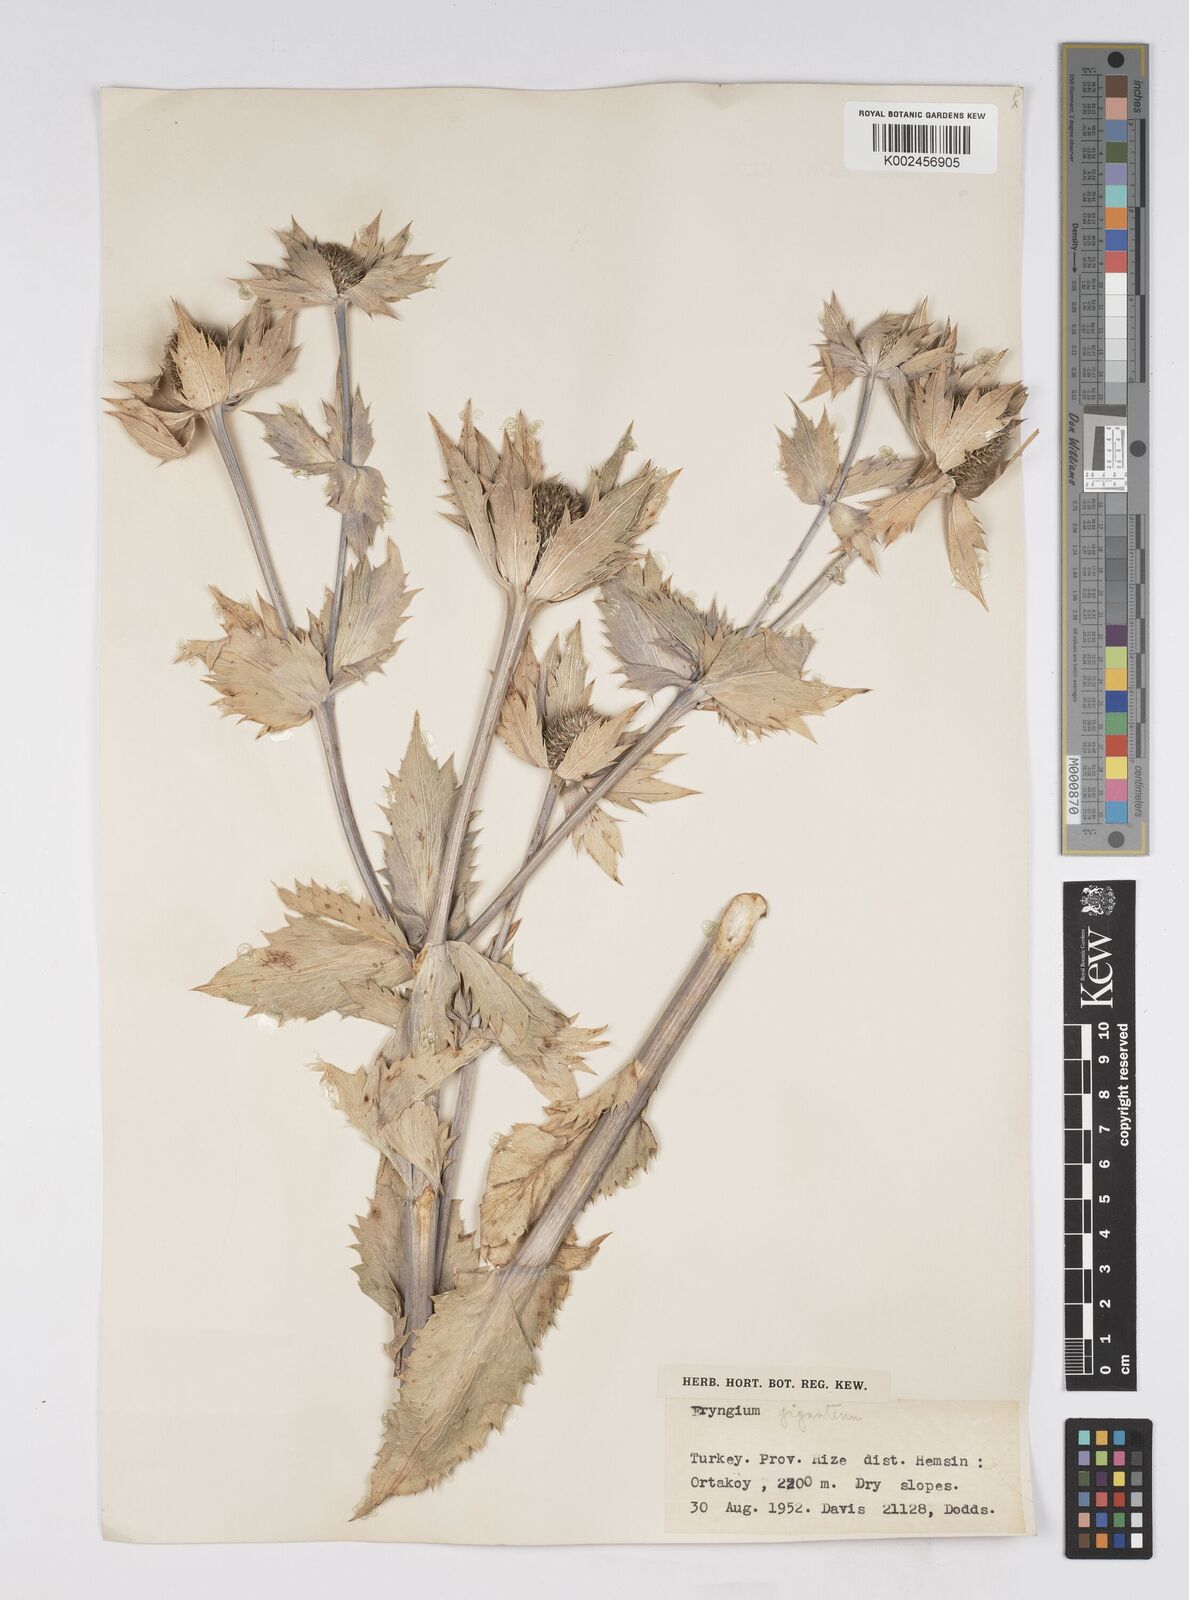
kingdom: Plantae
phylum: Tracheophyta
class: Magnoliopsida
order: Apiales
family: Apiaceae
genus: Eryngium
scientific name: Eryngium giganteum
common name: Tall eryngo
